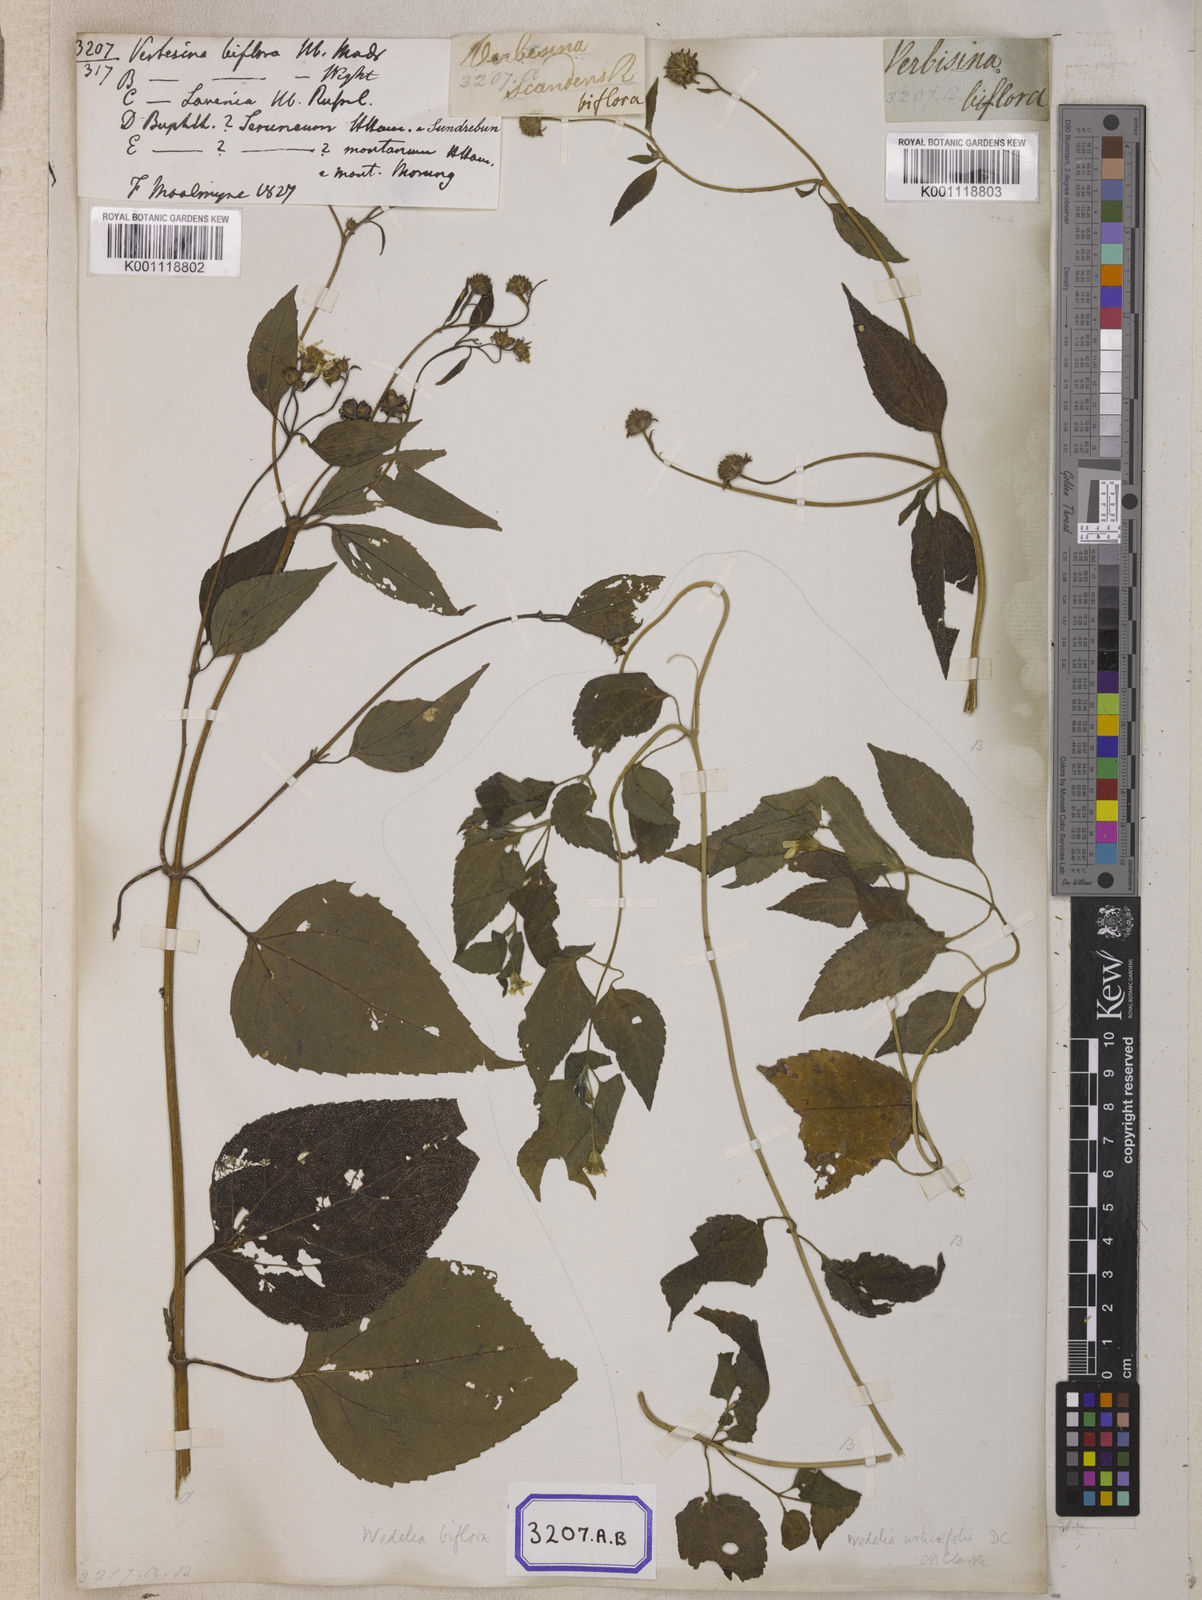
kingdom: Plantae
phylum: Tracheophyta
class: Magnoliopsida
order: Asterales
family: Asteraceae
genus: Indocypraea
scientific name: Indocypraea montana
